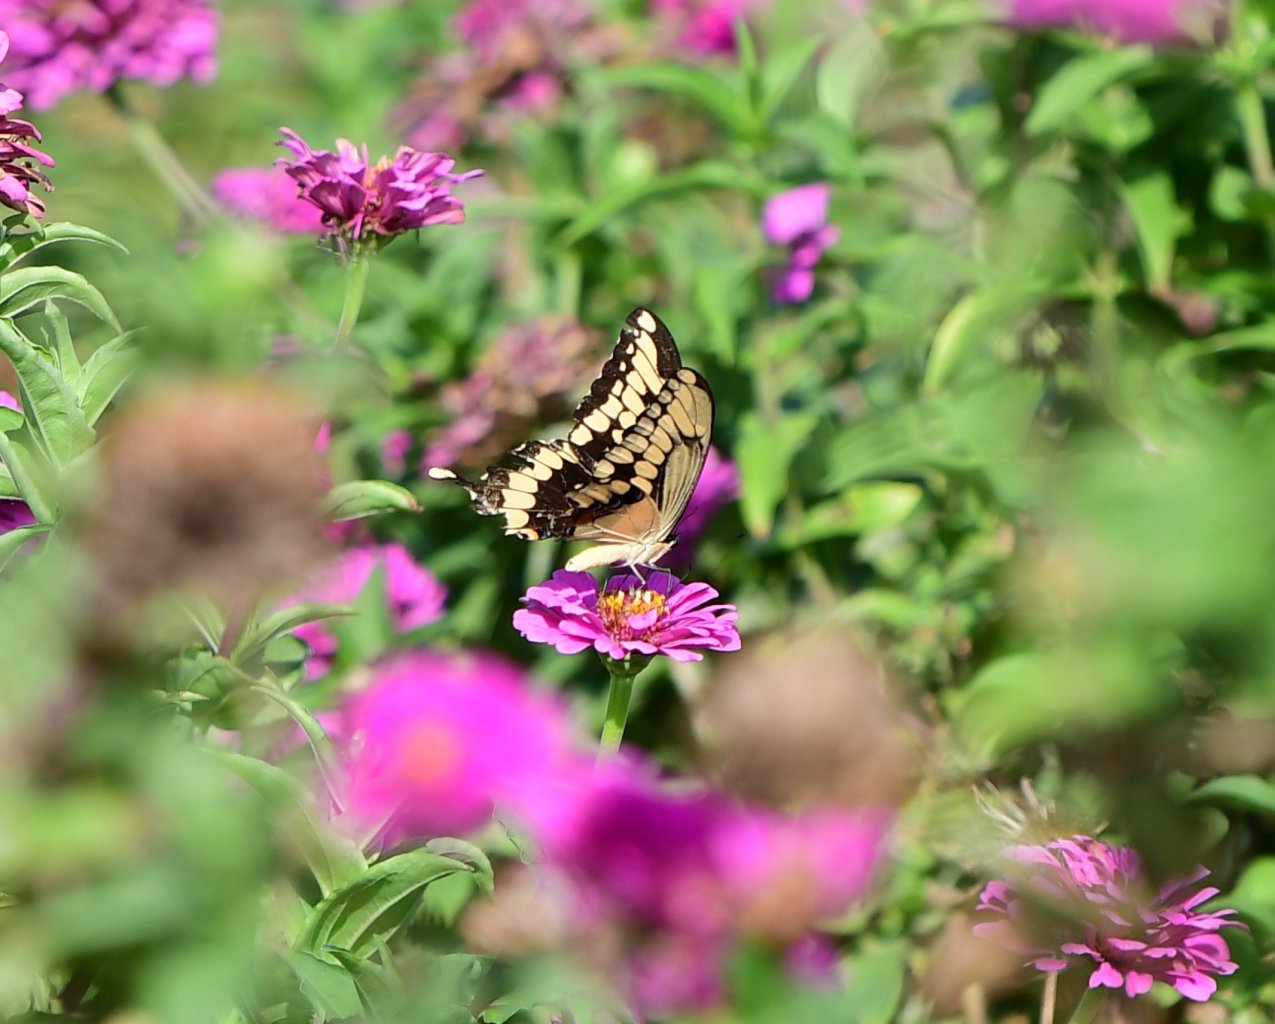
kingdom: Animalia
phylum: Arthropoda
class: Insecta
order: Lepidoptera
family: Papilionidae
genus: Papilio
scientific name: Papilio cresphontes
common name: Eastern Giant Swallowtail
